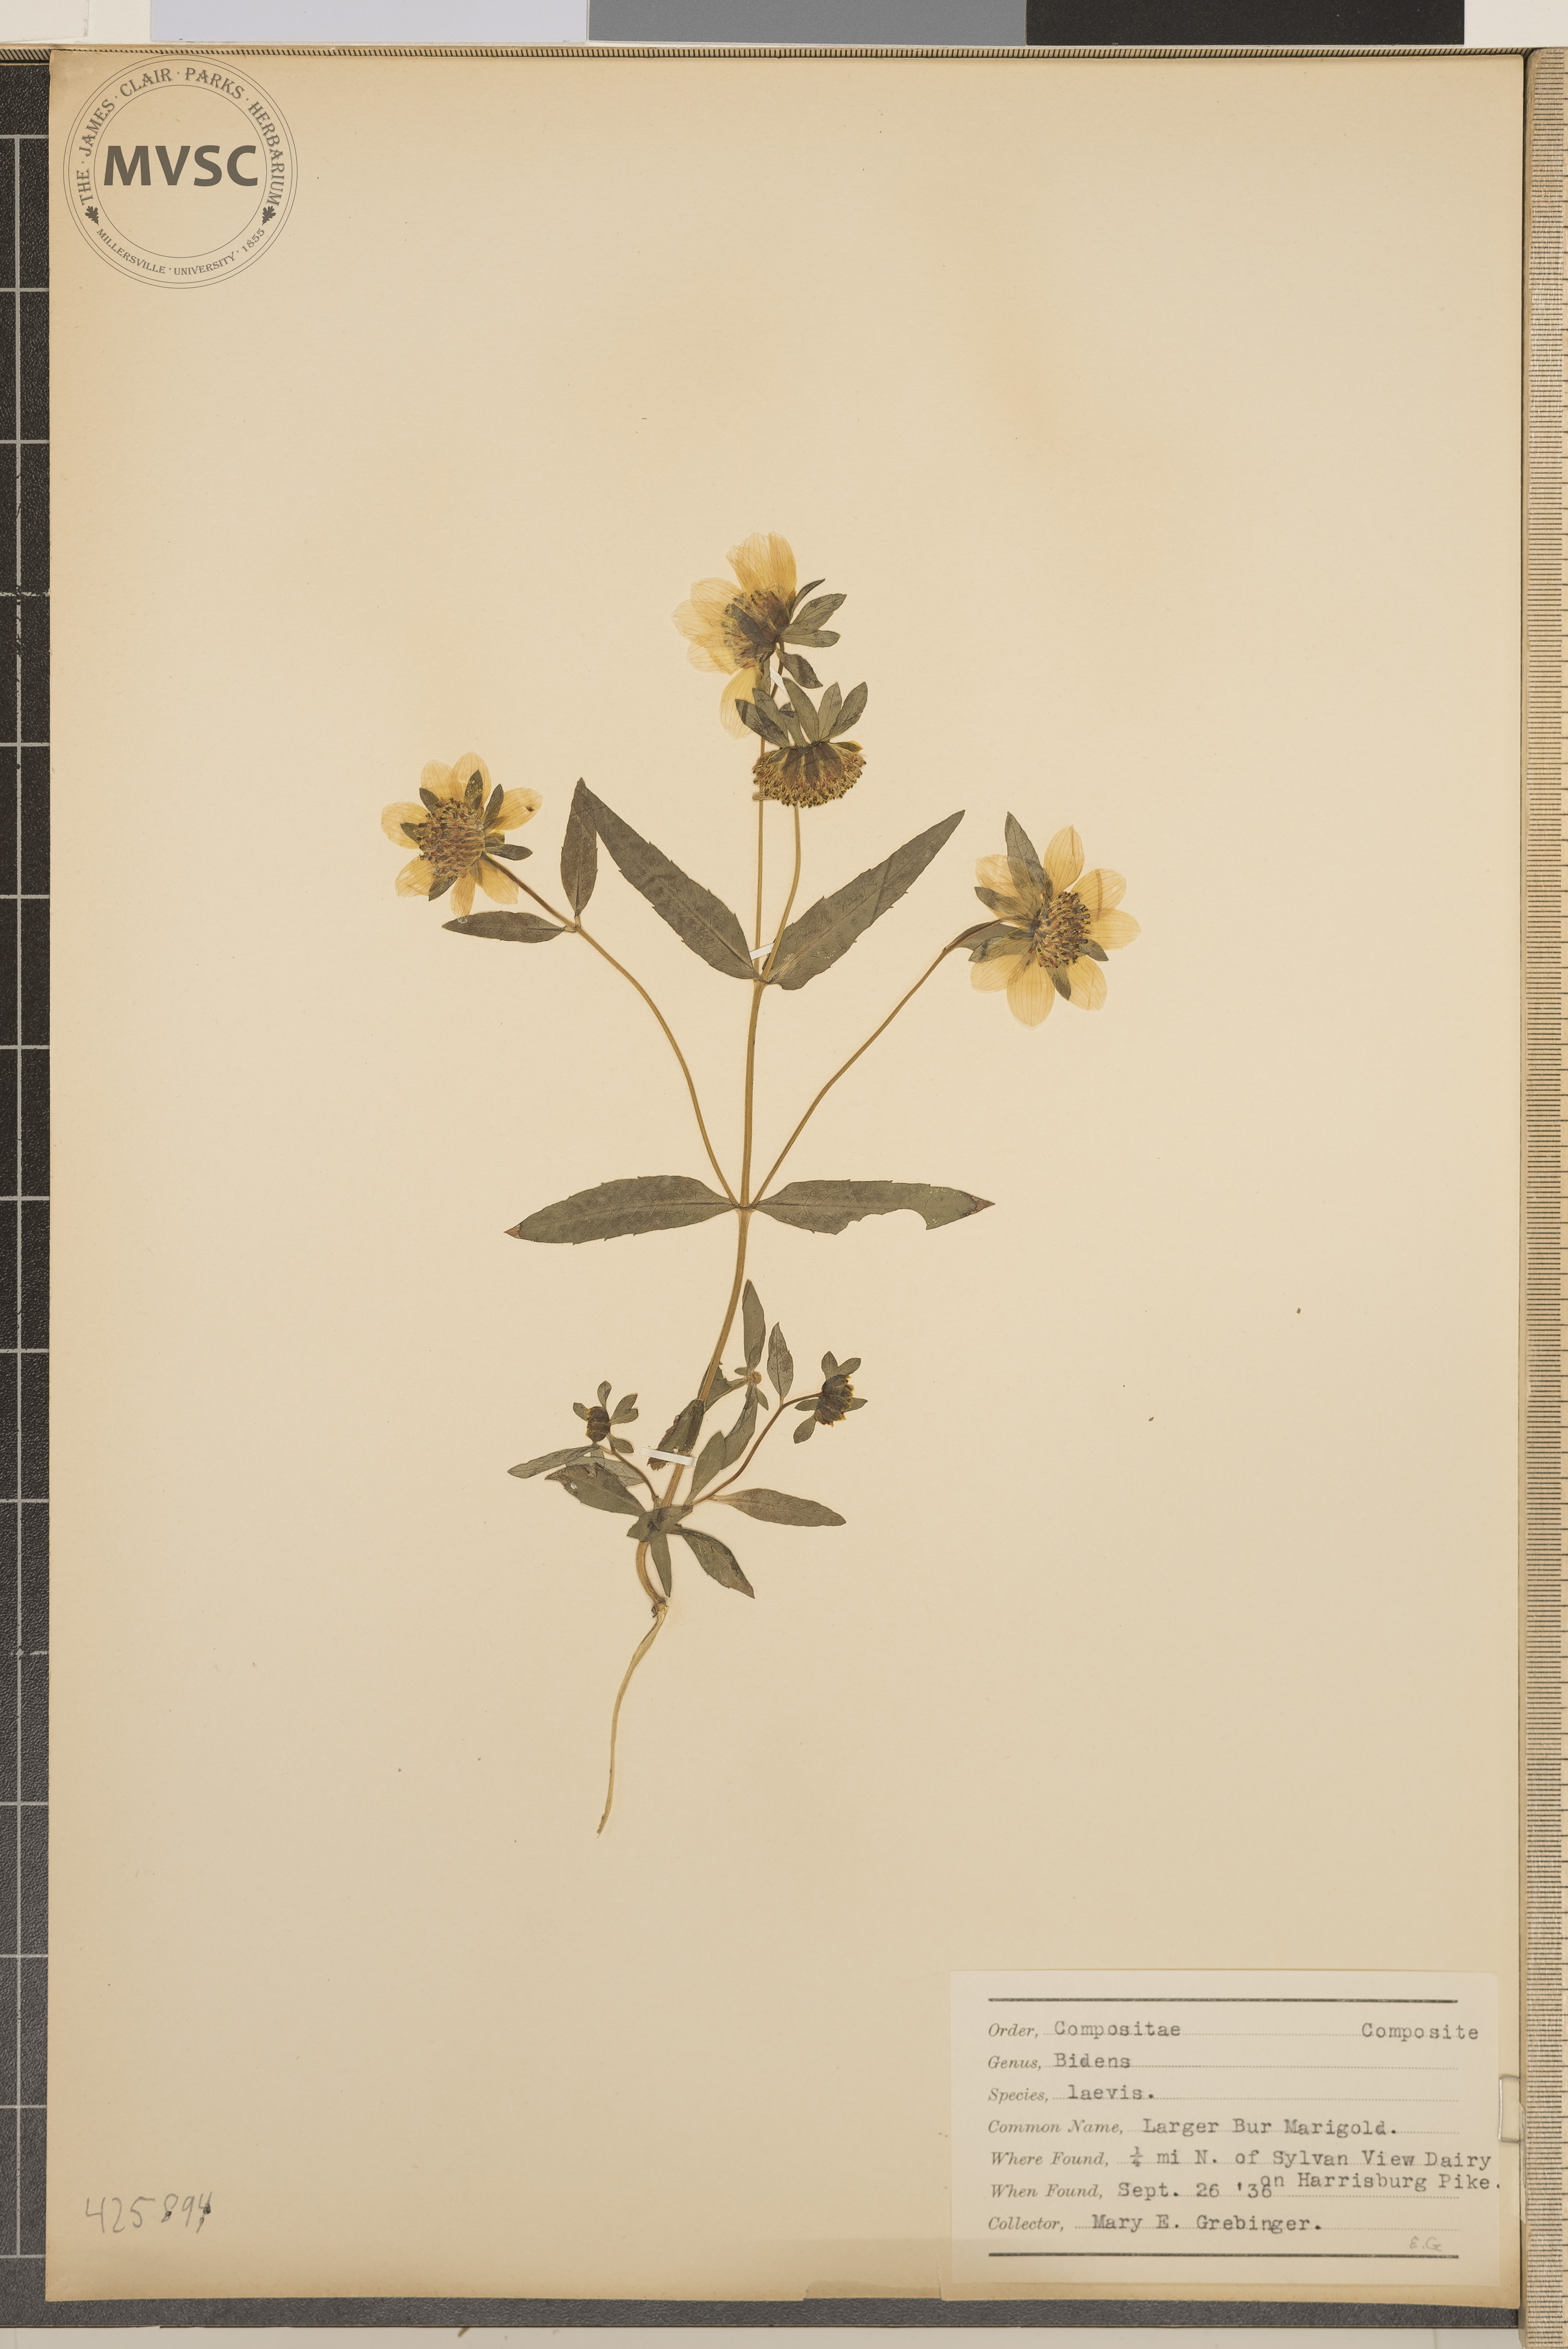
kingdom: Plantae
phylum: Tracheophyta
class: Magnoliopsida
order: Asterales
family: Asteraceae
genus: Bidens
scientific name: Bidens laevis
